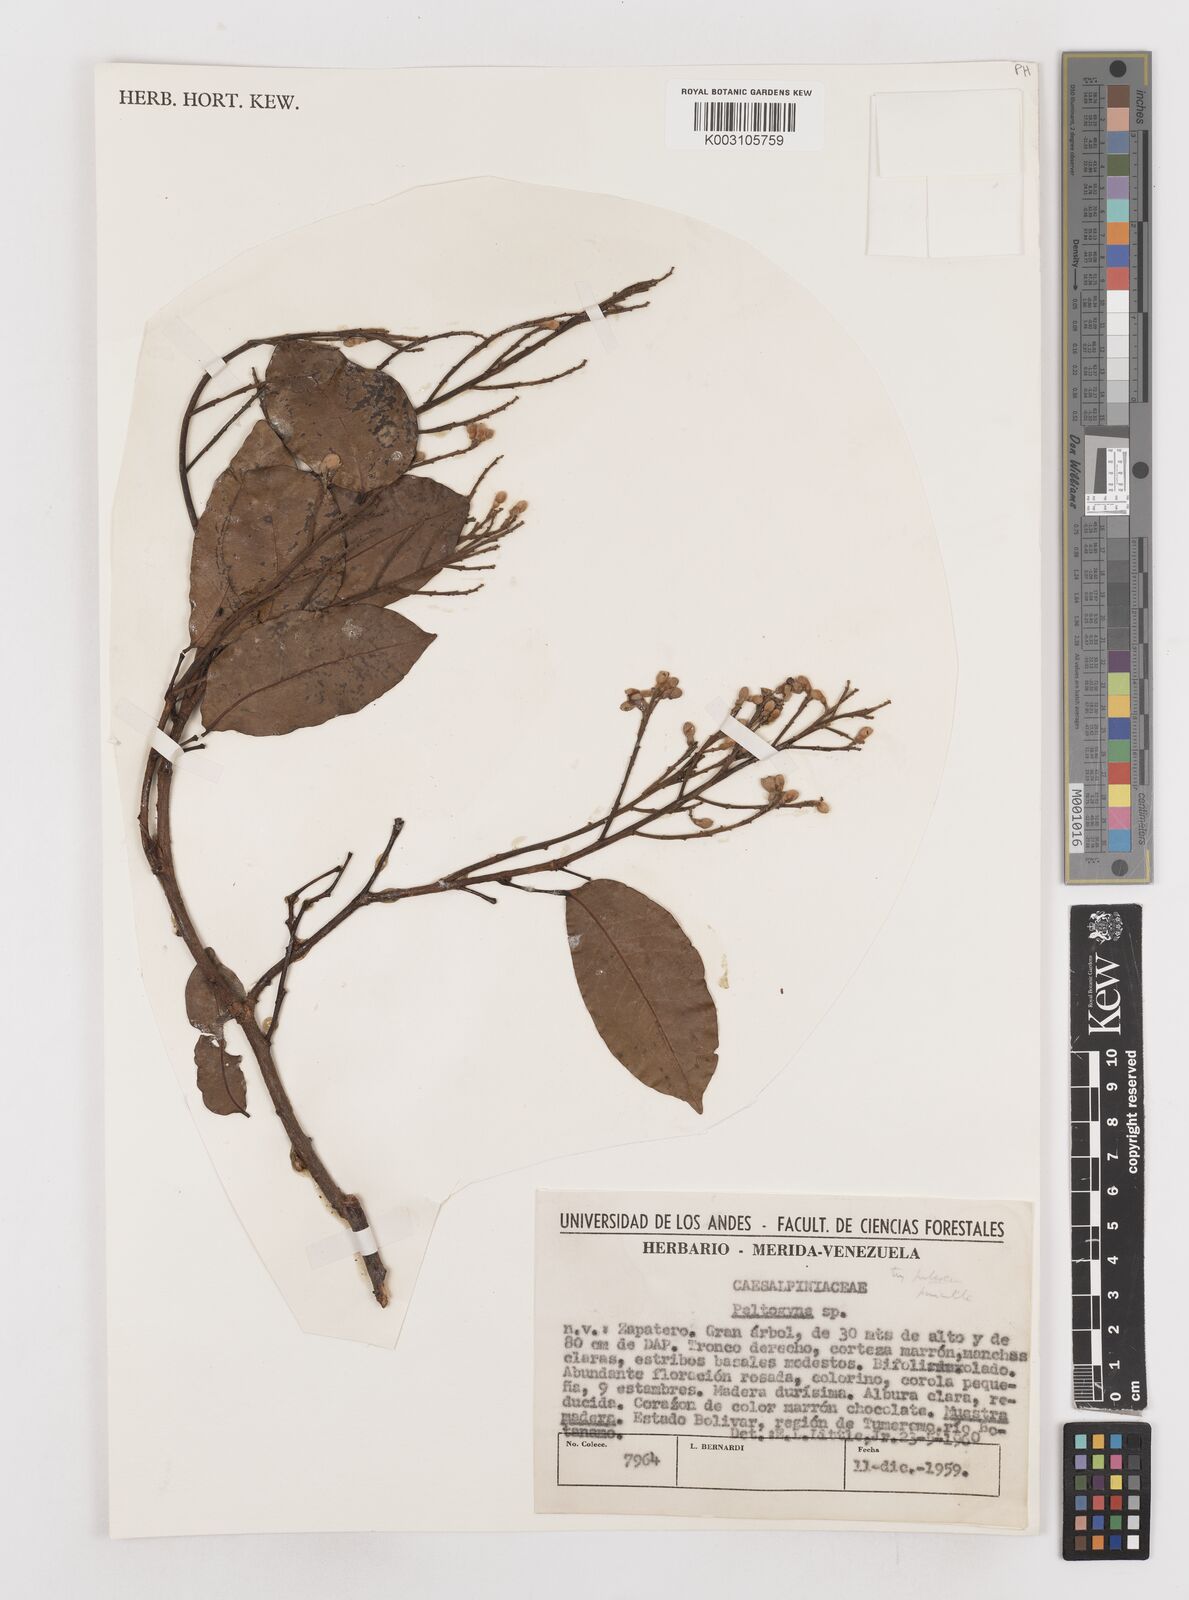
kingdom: Plantae
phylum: Tracheophyta
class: Magnoliopsida
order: Fabales
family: Fabaceae
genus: Peltogyne
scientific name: Peltogyne
